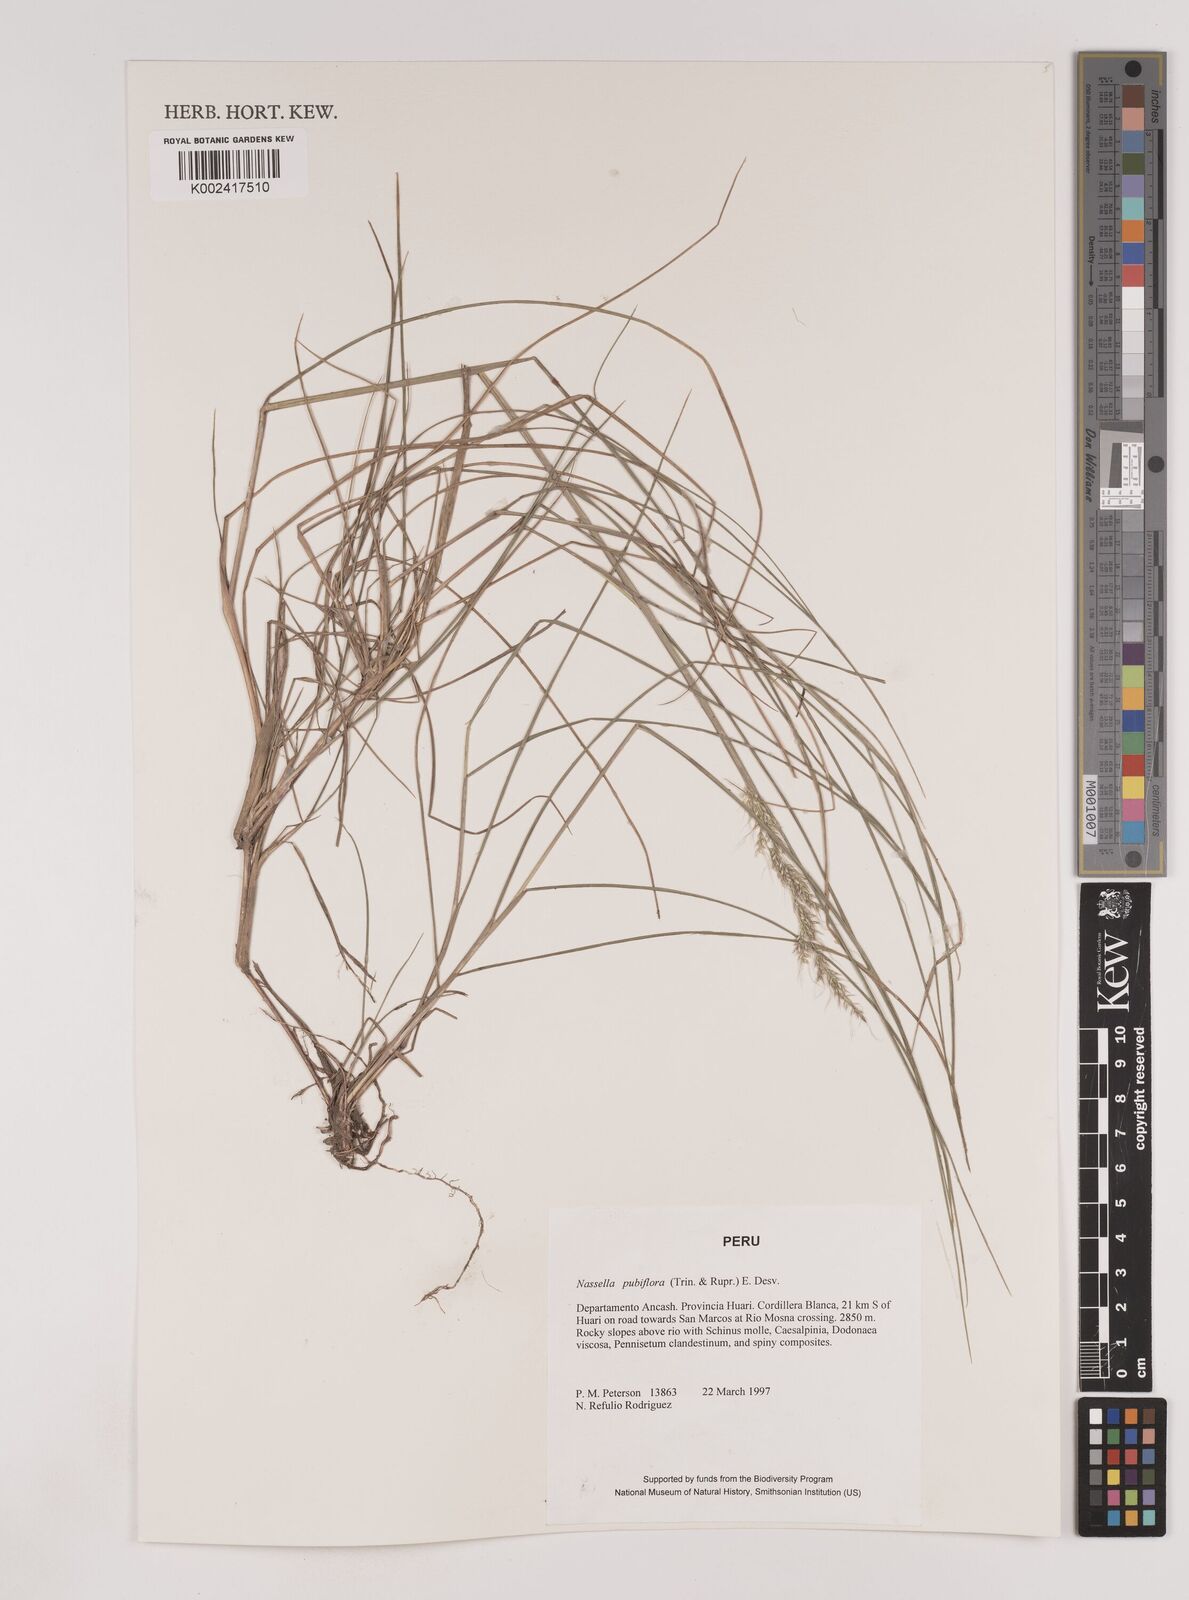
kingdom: Plantae
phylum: Tracheophyta
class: Liliopsida
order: Poales
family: Poaceae
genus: Nassella
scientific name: Nassella pubiflora
